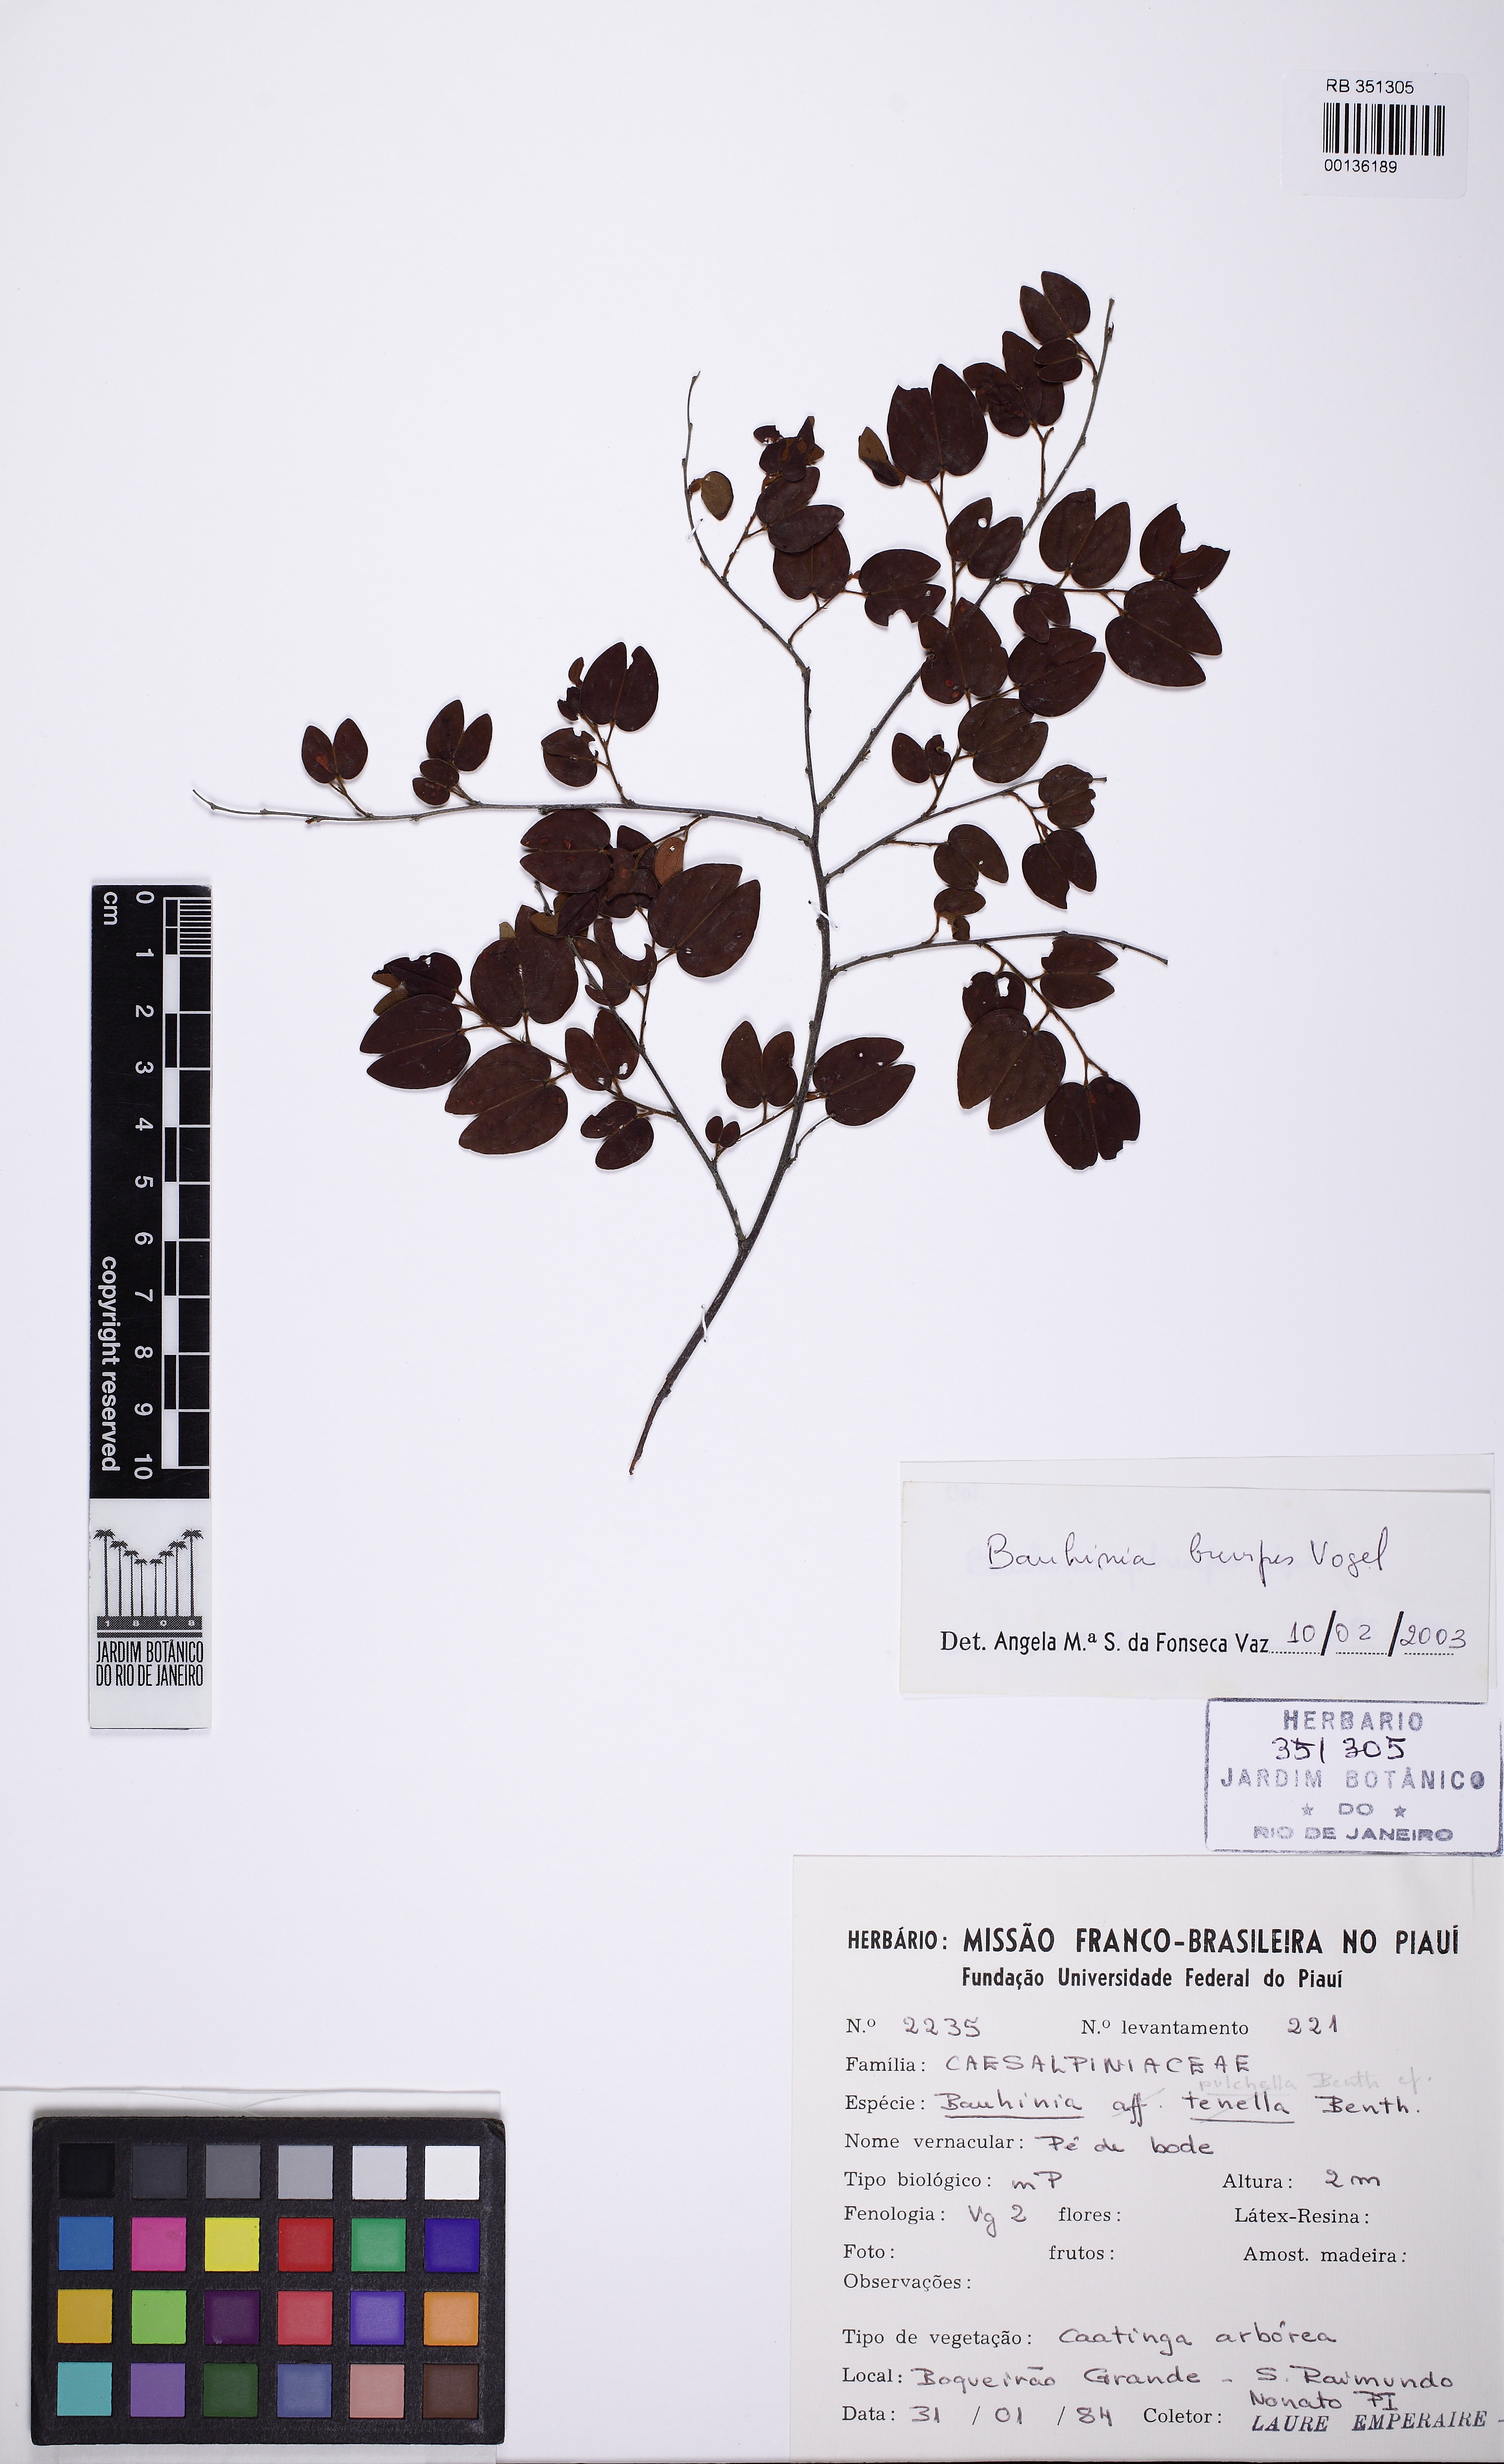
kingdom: Plantae
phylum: Tracheophyta
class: Magnoliopsida
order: Fabales
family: Fabaceae
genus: Bauhinia
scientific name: Bauhinia brevipes
